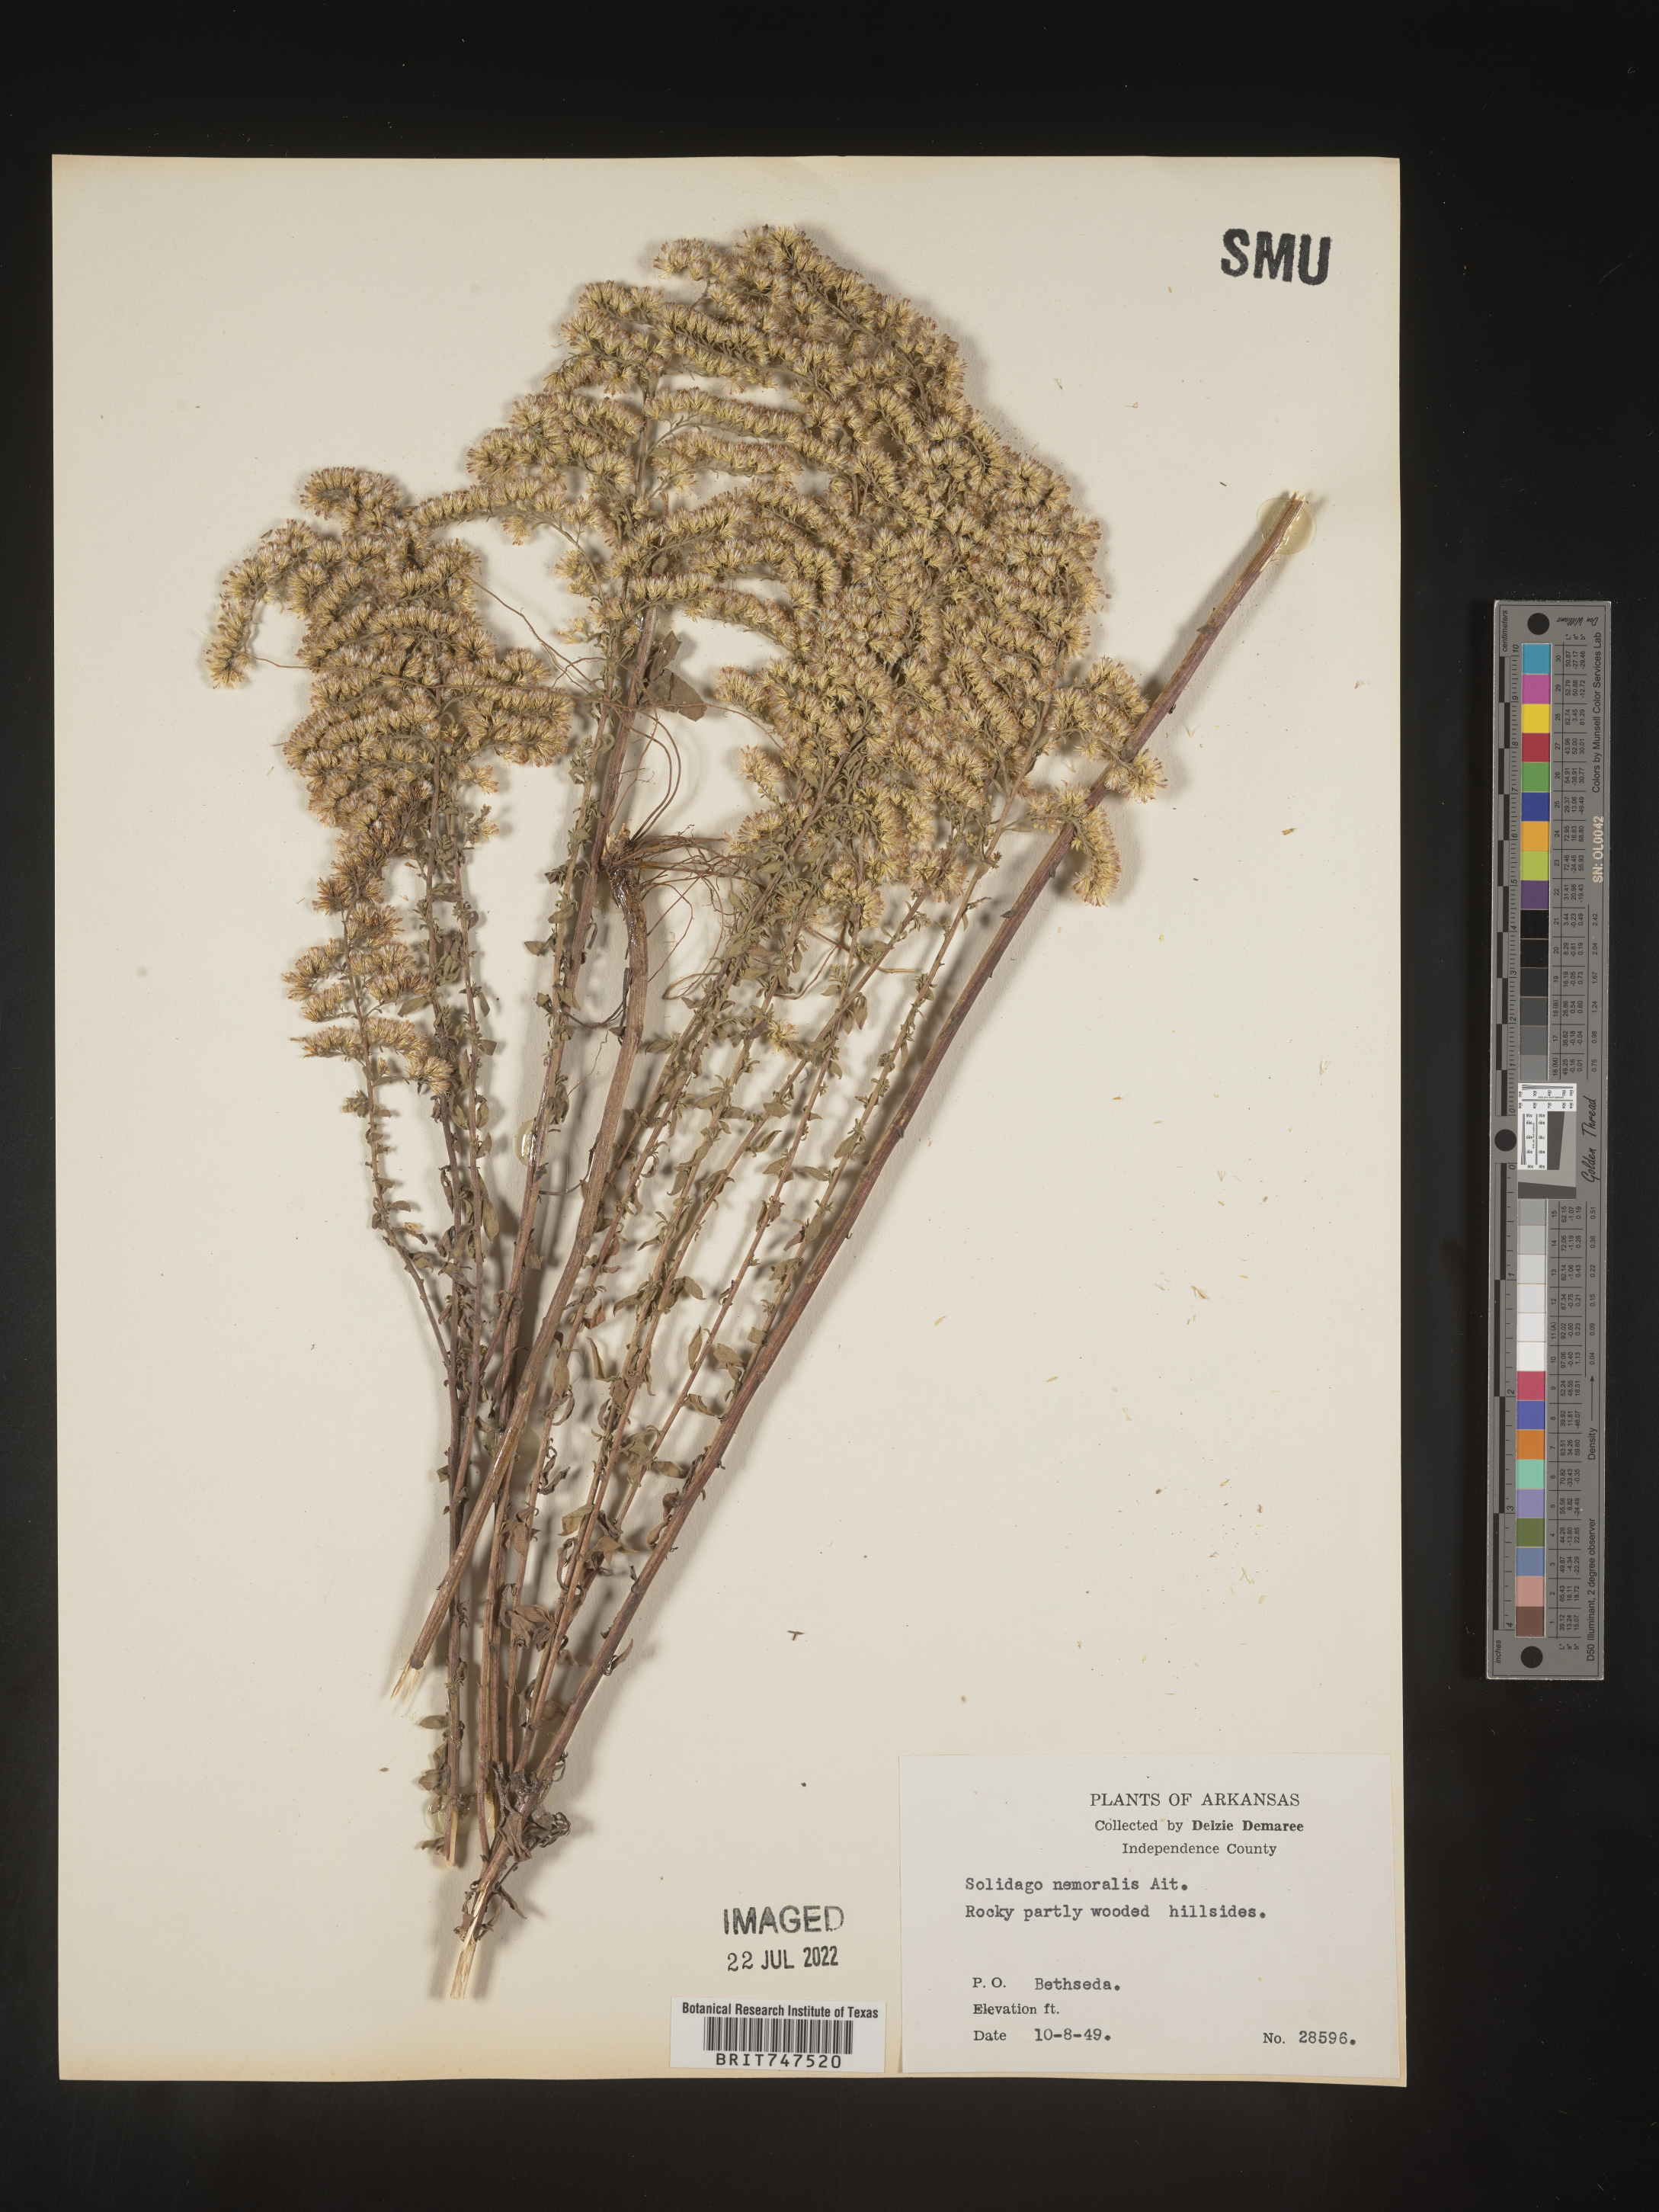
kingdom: Plantae
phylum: Tracheophyta
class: Magnoliopsida
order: Asterales
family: Asteraceae
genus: Solidago
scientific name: Solidago nemoralis
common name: Grey goldenrod
